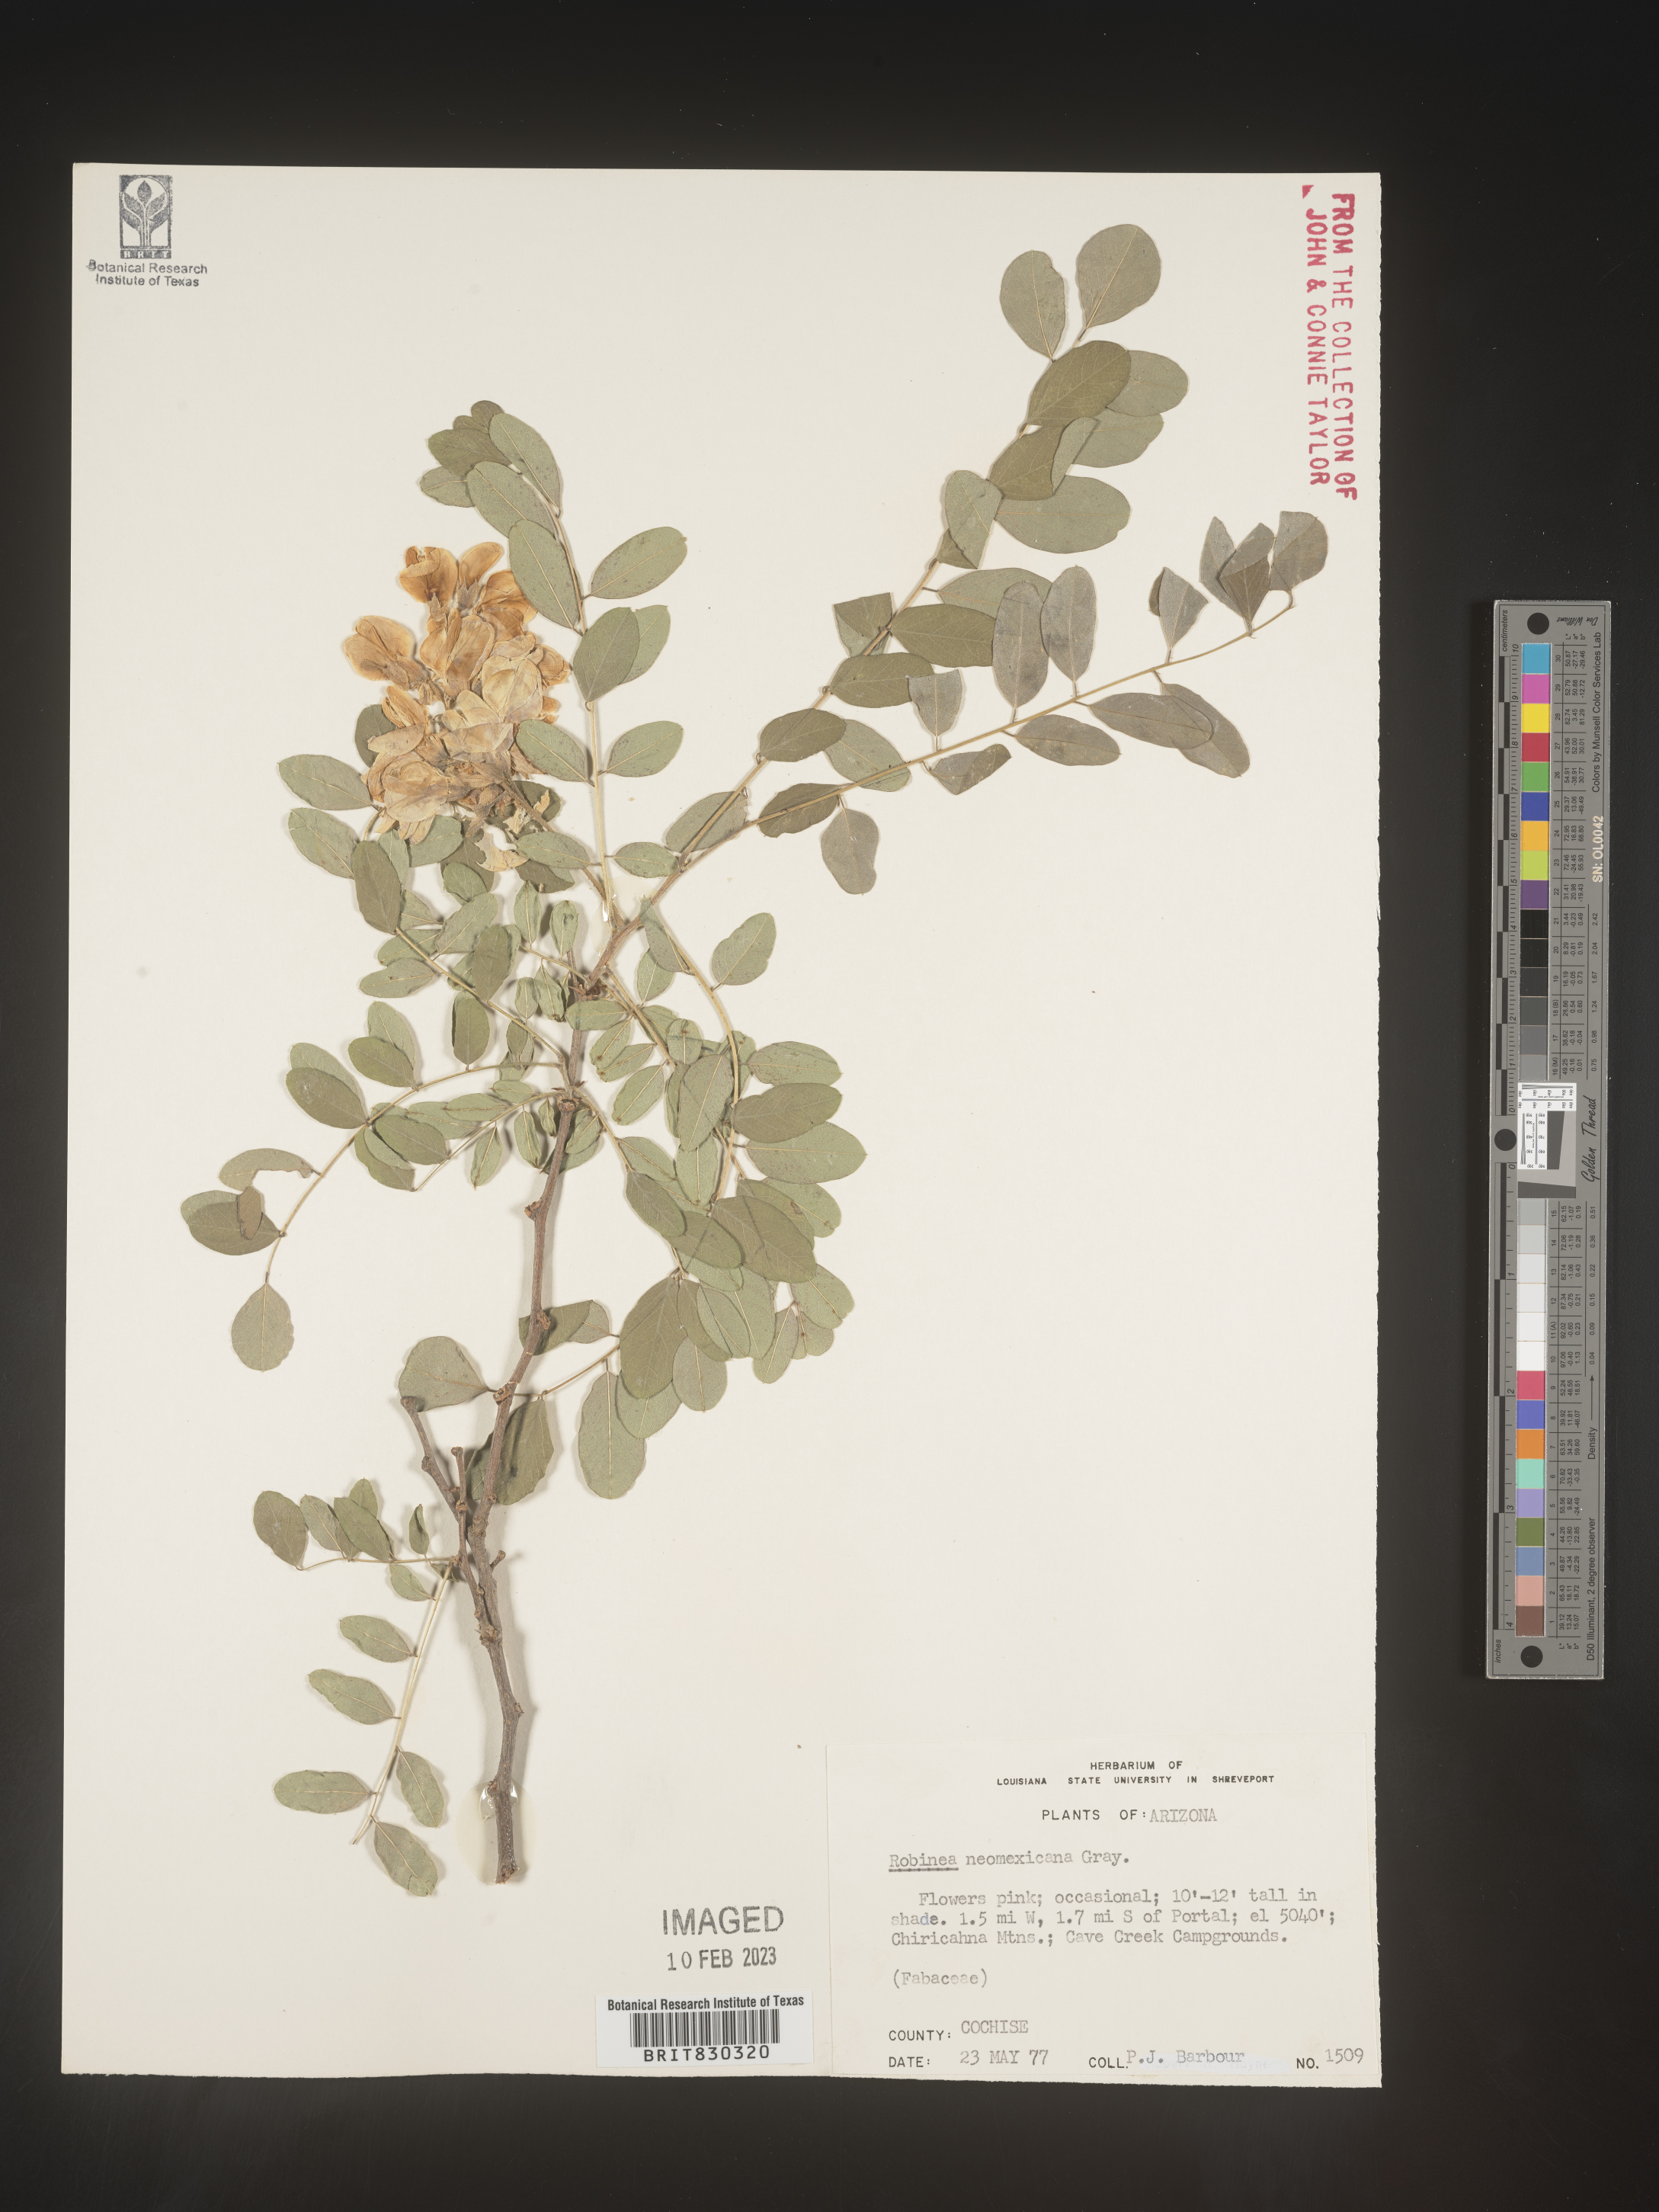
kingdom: Plantae
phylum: Tracheophyta
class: Magnoliopsida
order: Fabales
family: Fabaceae
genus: Robinia
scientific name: Robinia neomexicana
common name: New mexico locust
